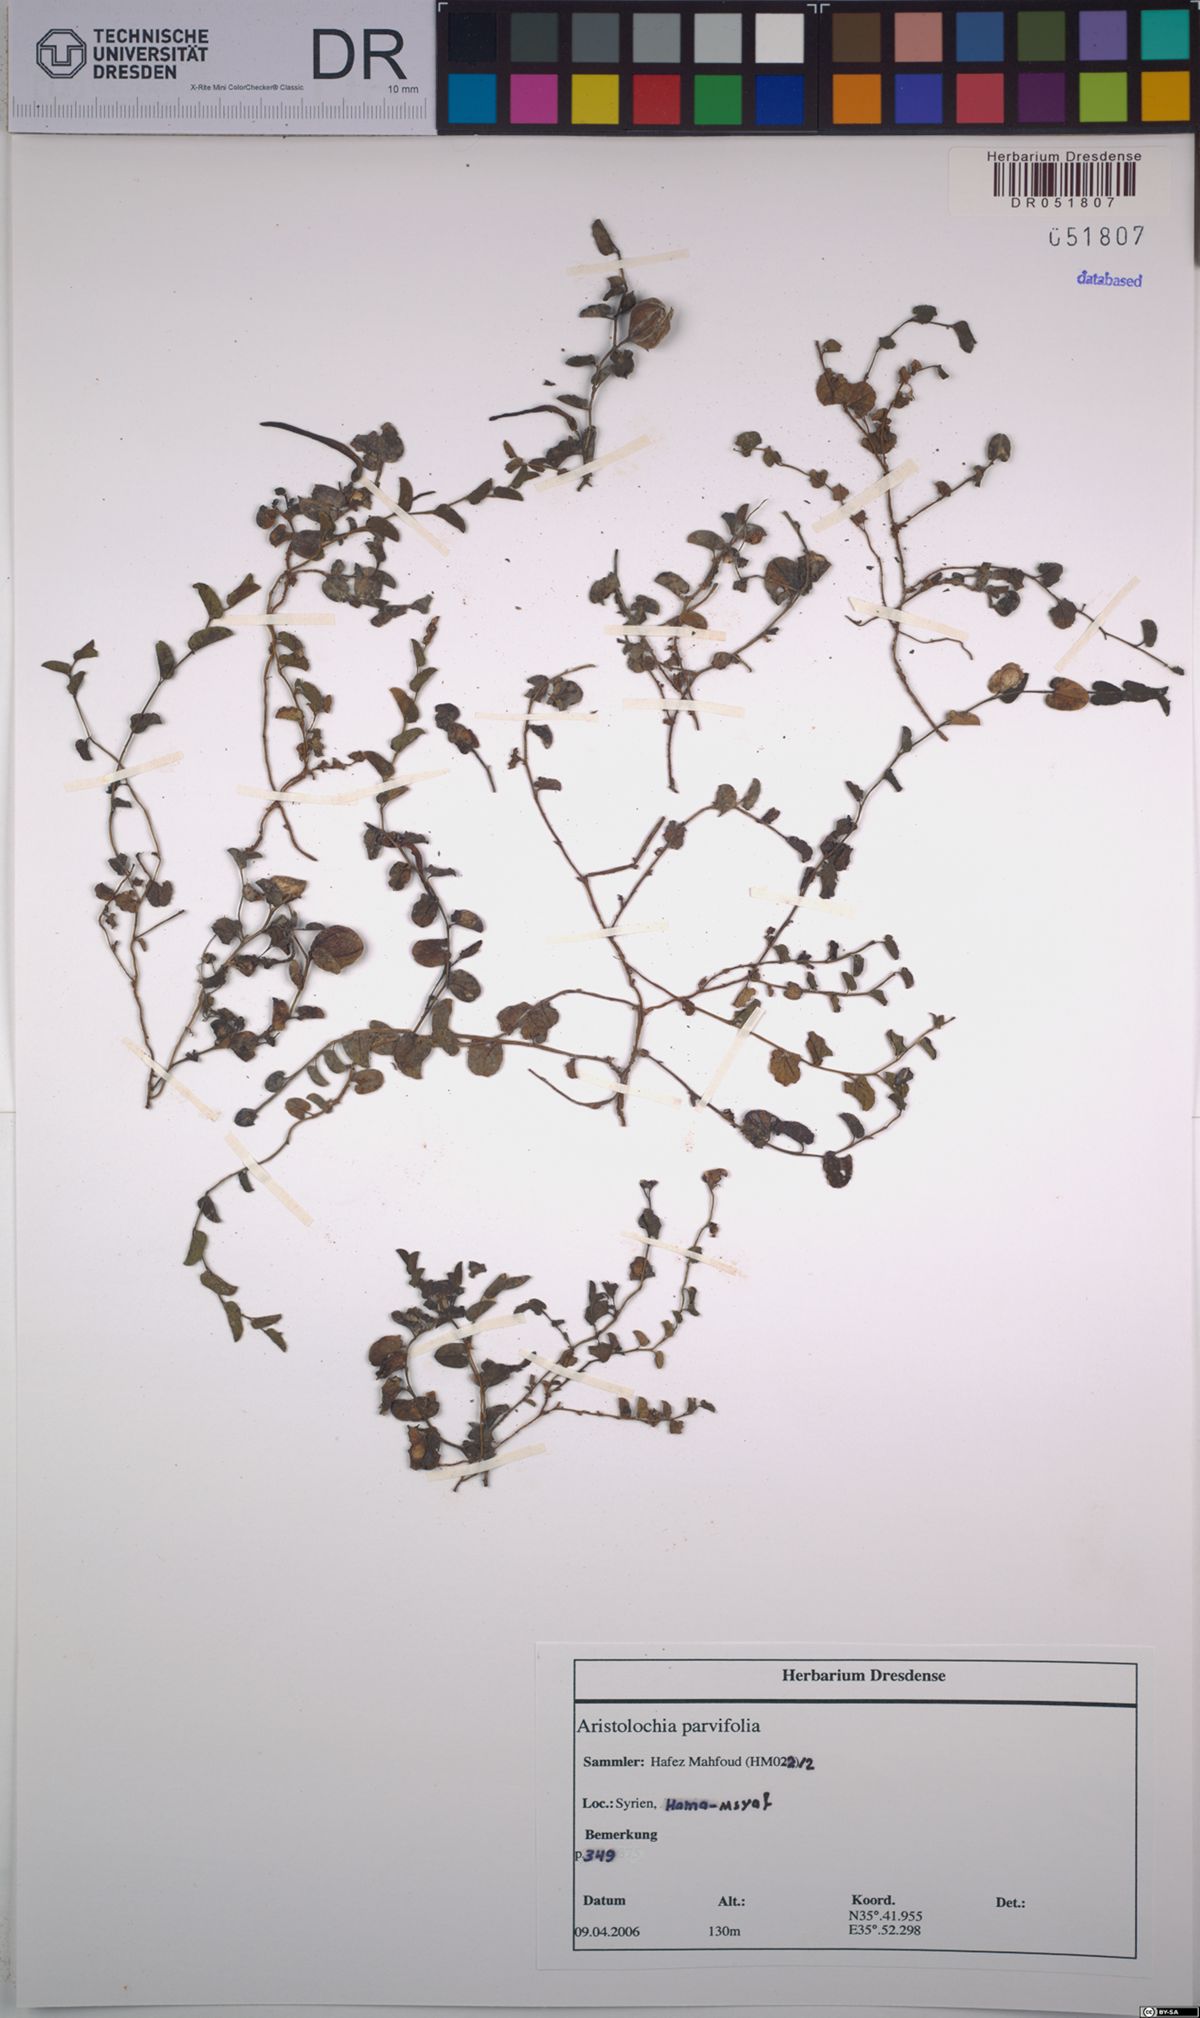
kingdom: Plantae
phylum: Tracheophyta
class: Magnoliopsida
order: Piperales
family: Aristolochiaceae
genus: Aristolochia
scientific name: Aristolochia parvifolia
